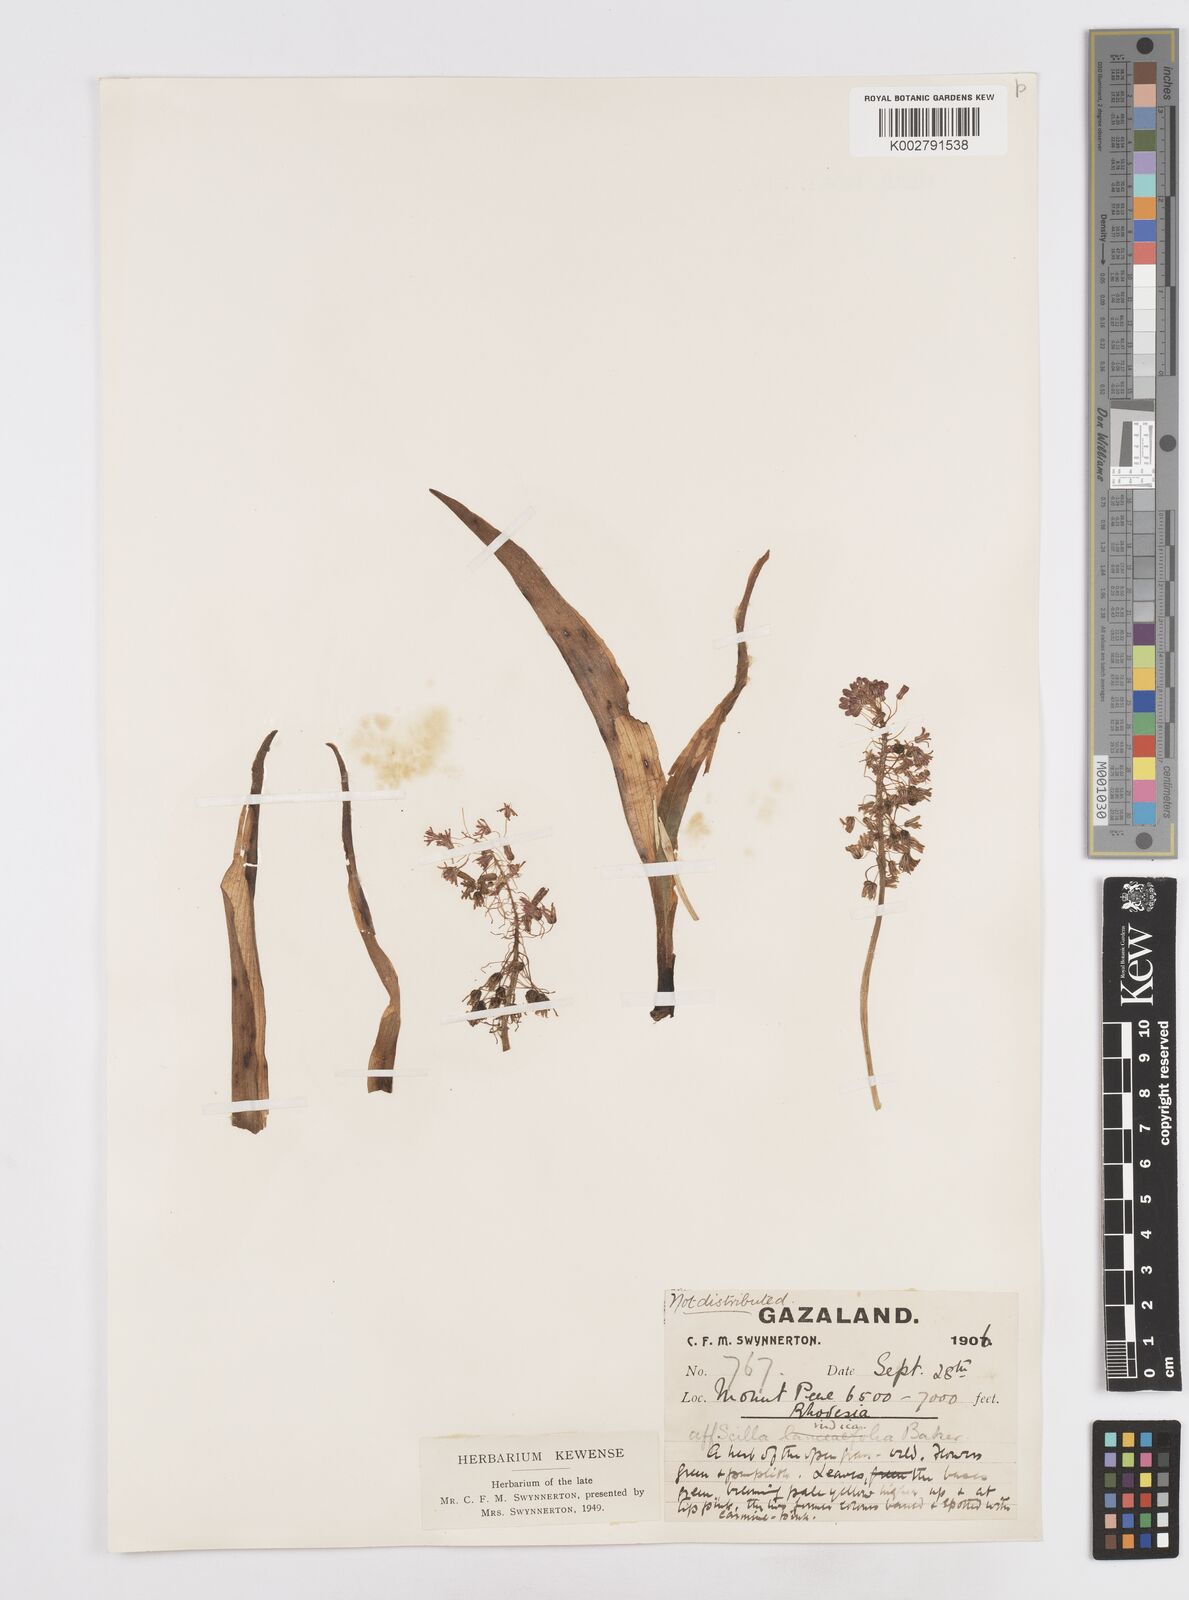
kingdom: Plantae
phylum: Tracheophyta
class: Liliopsida
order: Asparagales
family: Asparagaceae
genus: Scilla
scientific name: Scilla
